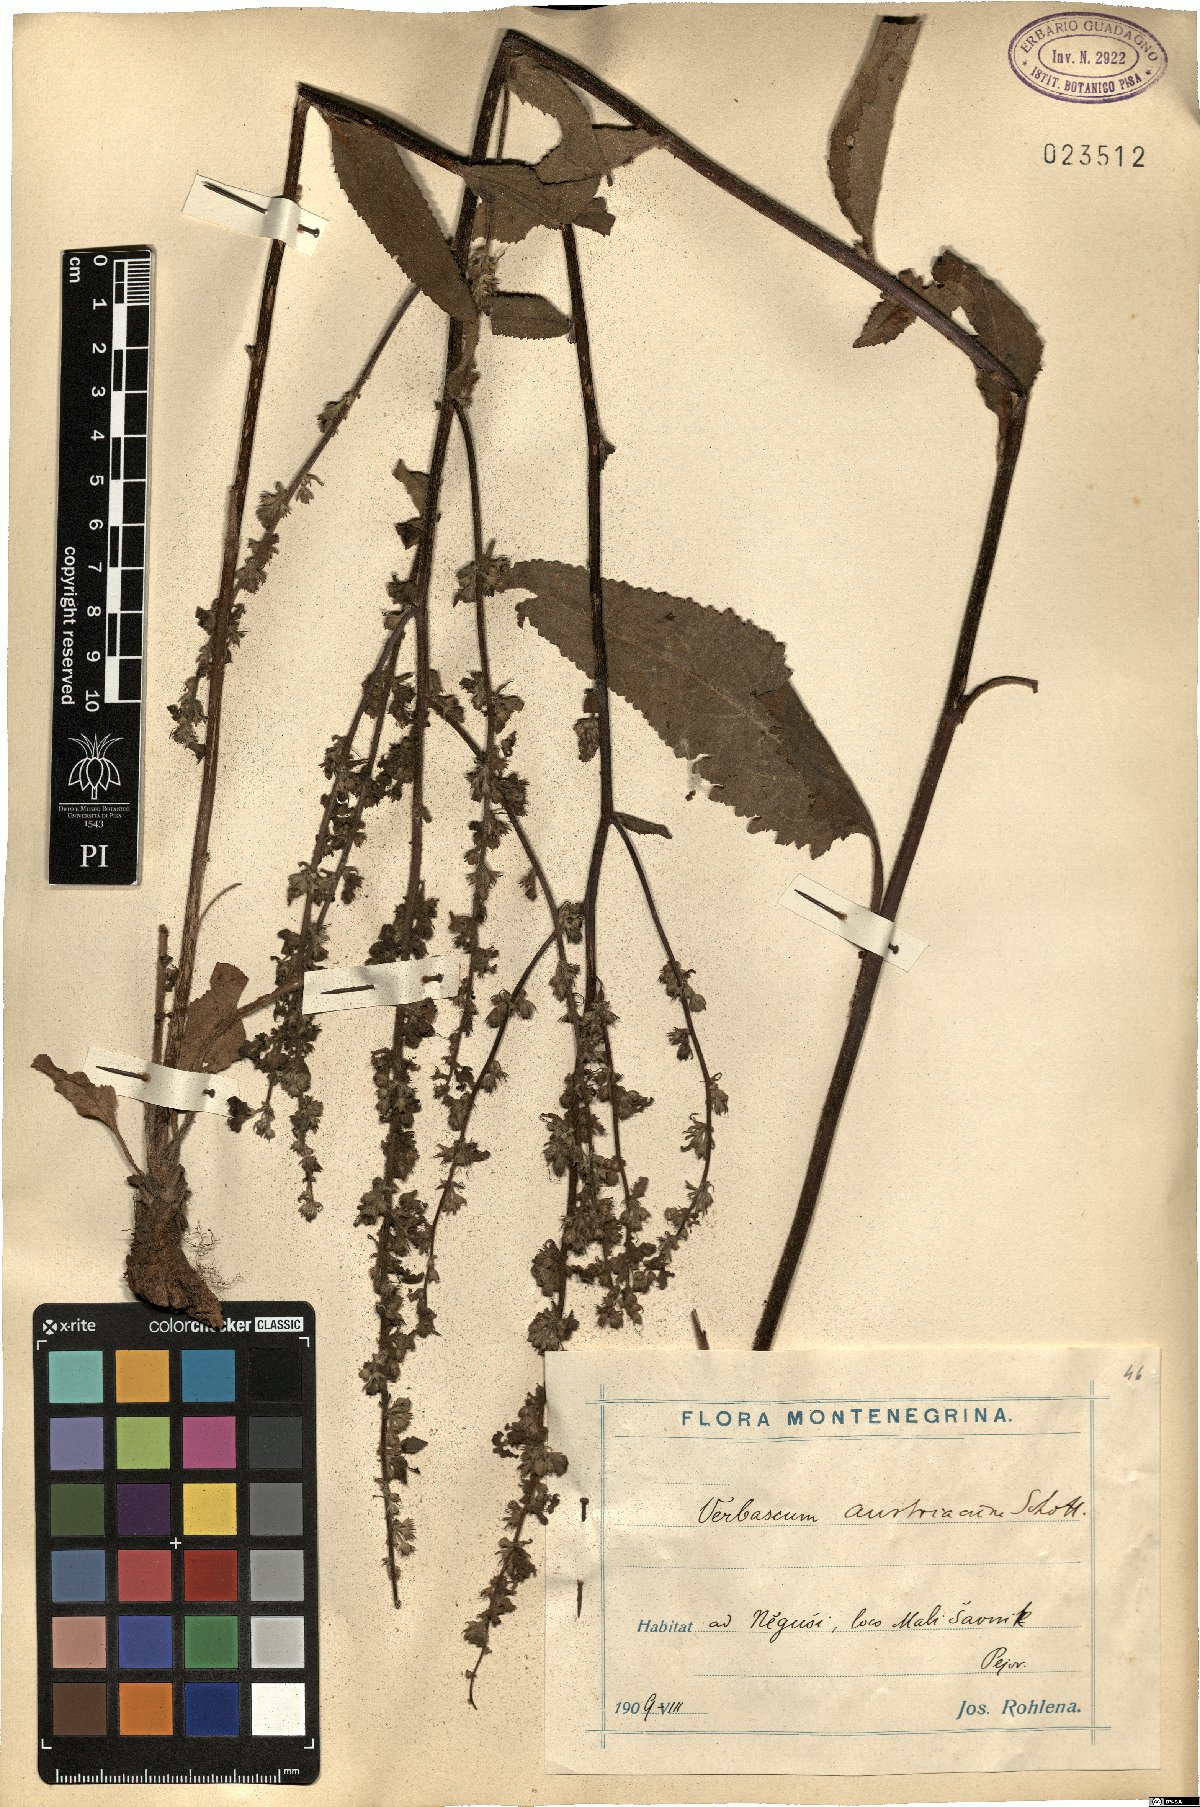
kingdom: Plantae
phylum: Tracheophyta
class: Magnoliopsida
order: Lamiales
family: Scrophulariaceae
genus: Verbascum
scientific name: Verbascum chaixii
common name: Nettle-leaved mullein
